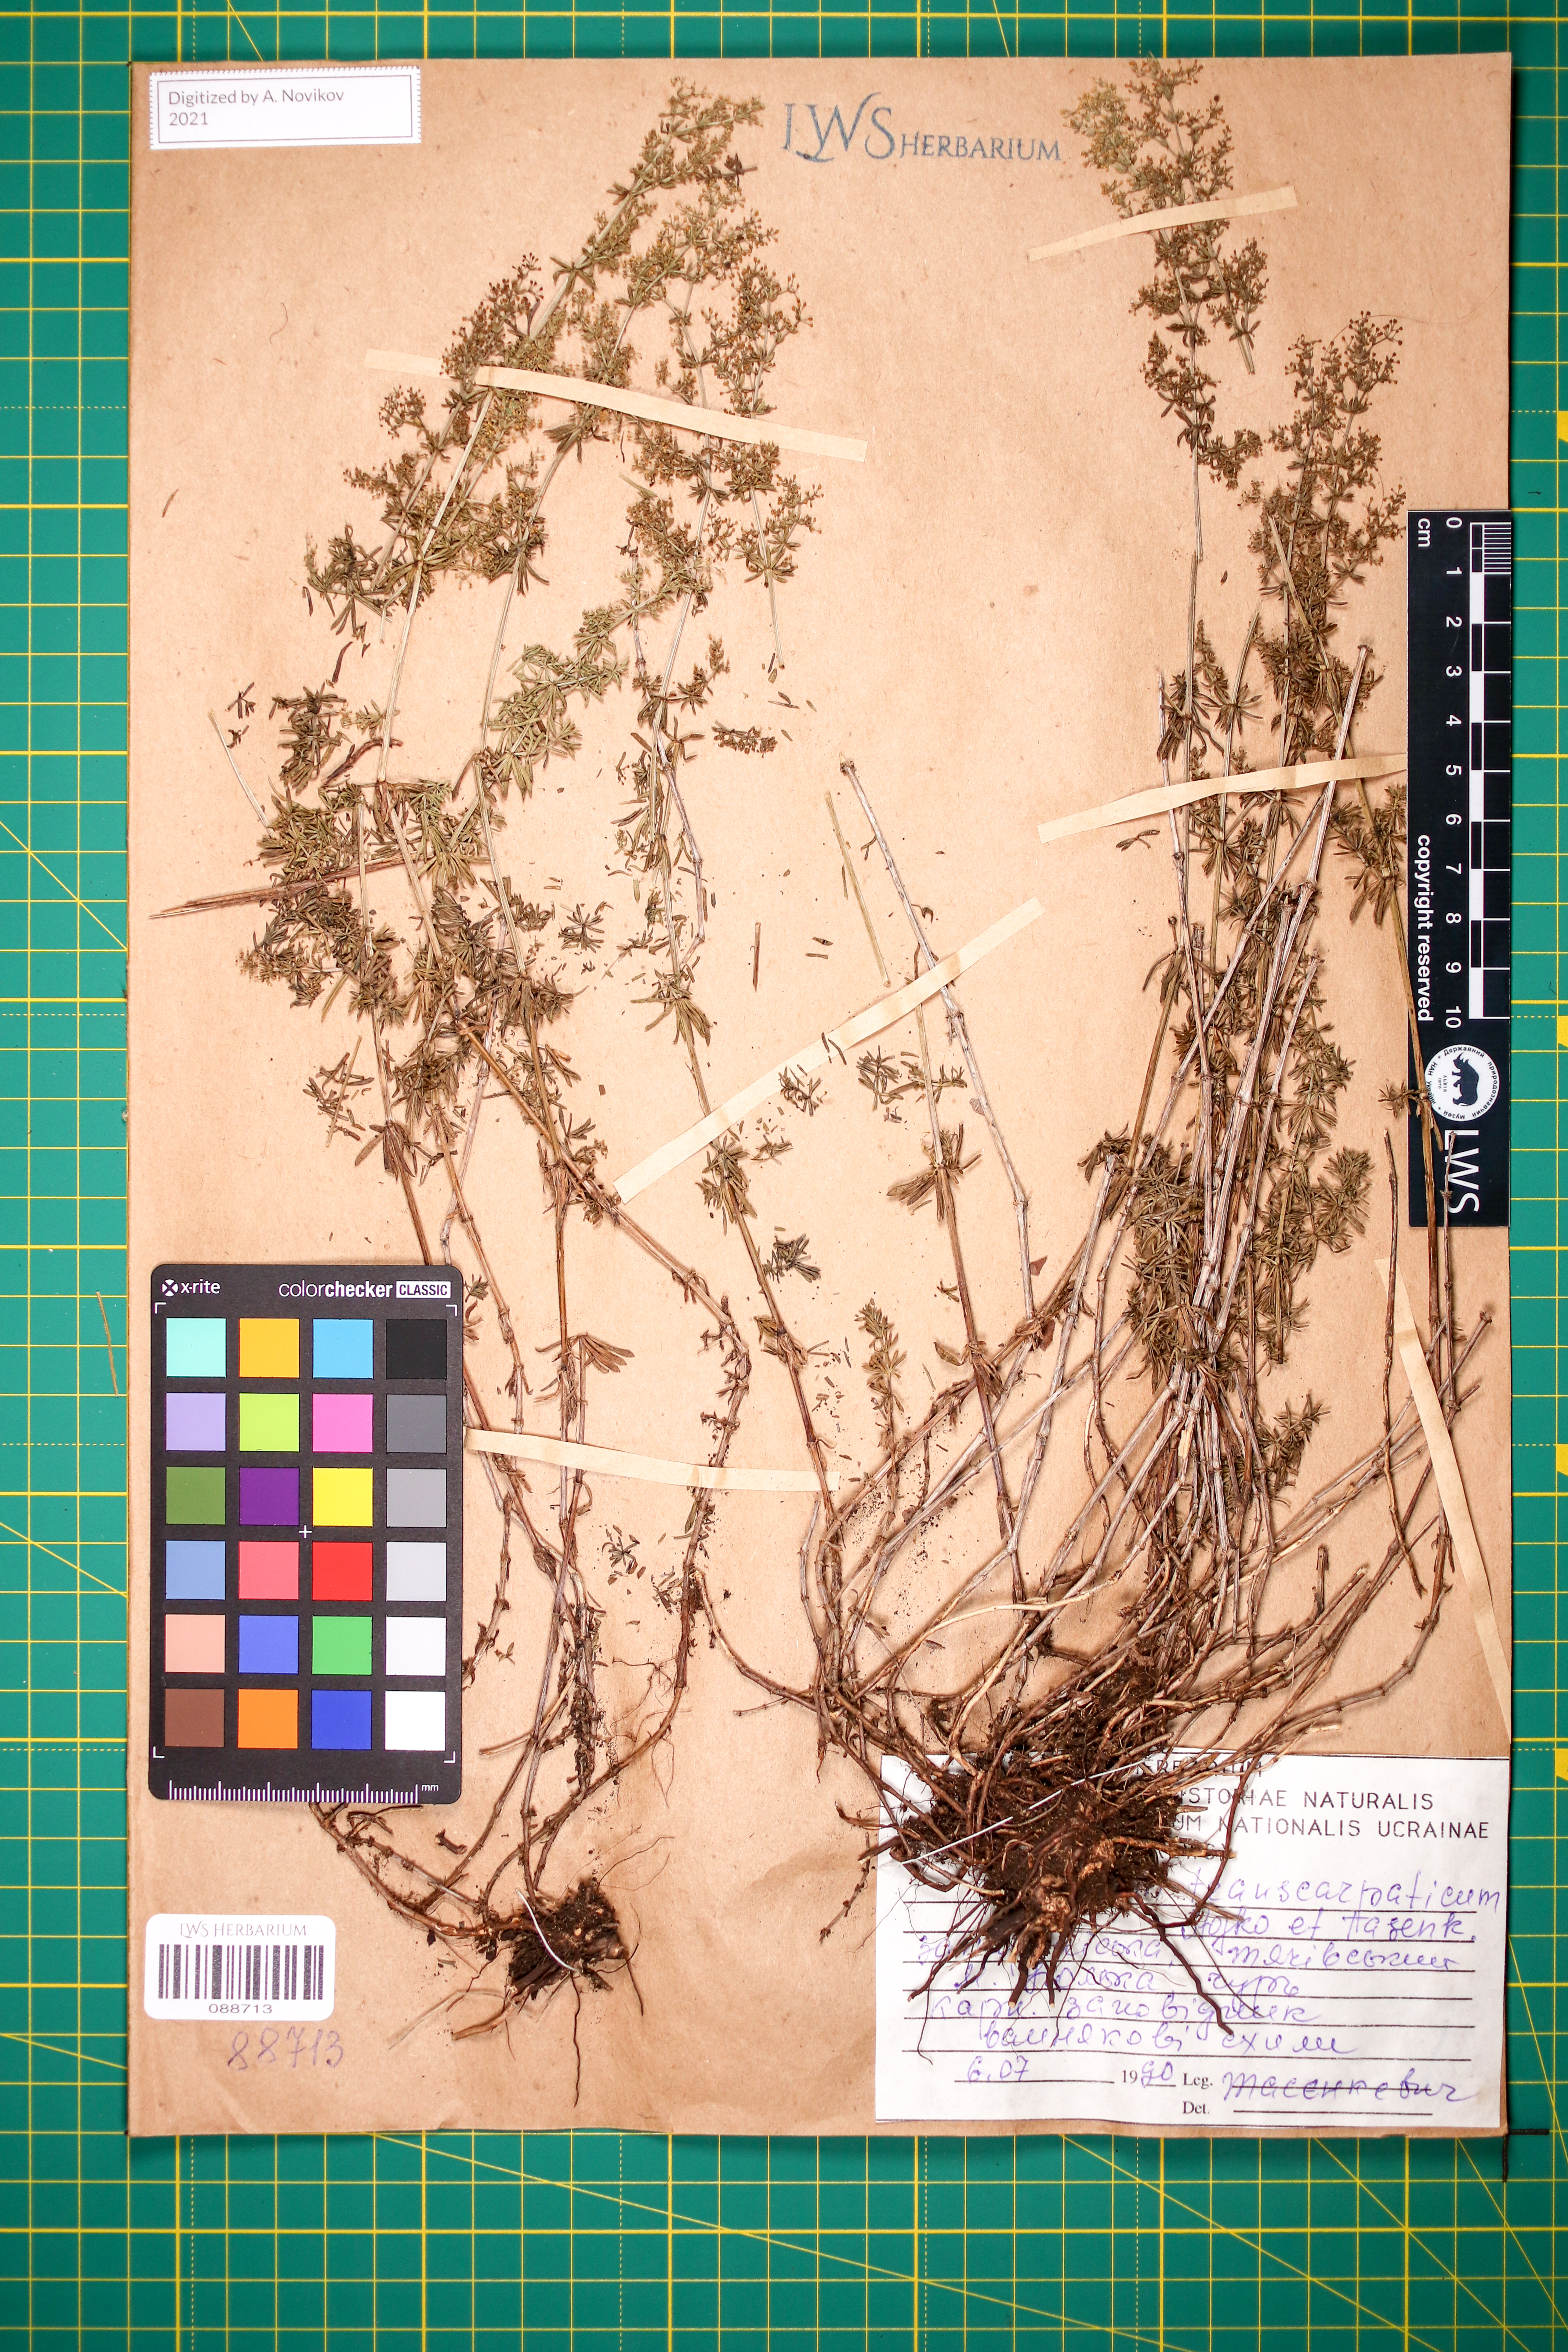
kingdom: Plantae
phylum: Tracheophyta
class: Magnoliopsida
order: Gentianales
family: Rubiaceae
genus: Galium
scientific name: Galium transcarpaticum
